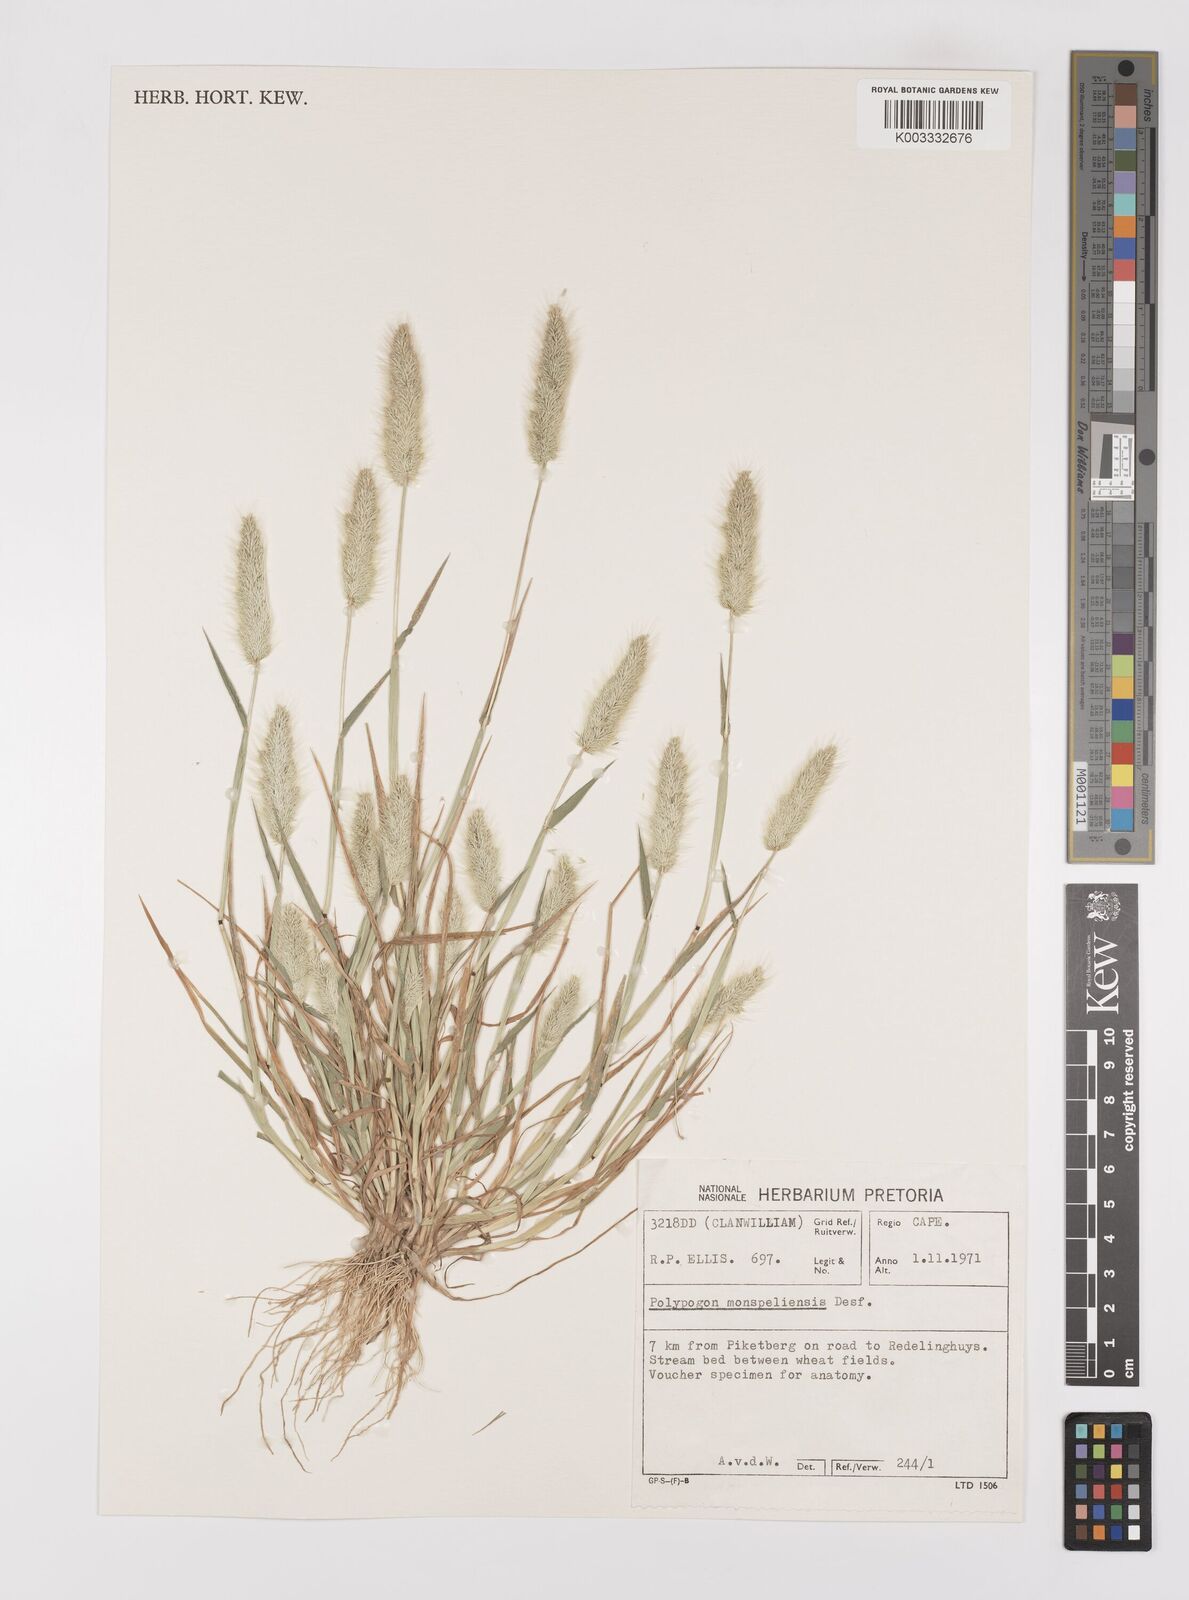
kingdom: Plantae
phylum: Tracheophyta
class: Liliopsida
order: Poales
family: Poaceae
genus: Polypogon
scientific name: Polypogon monspeliensis
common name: Annual rabbitsfoot grass
